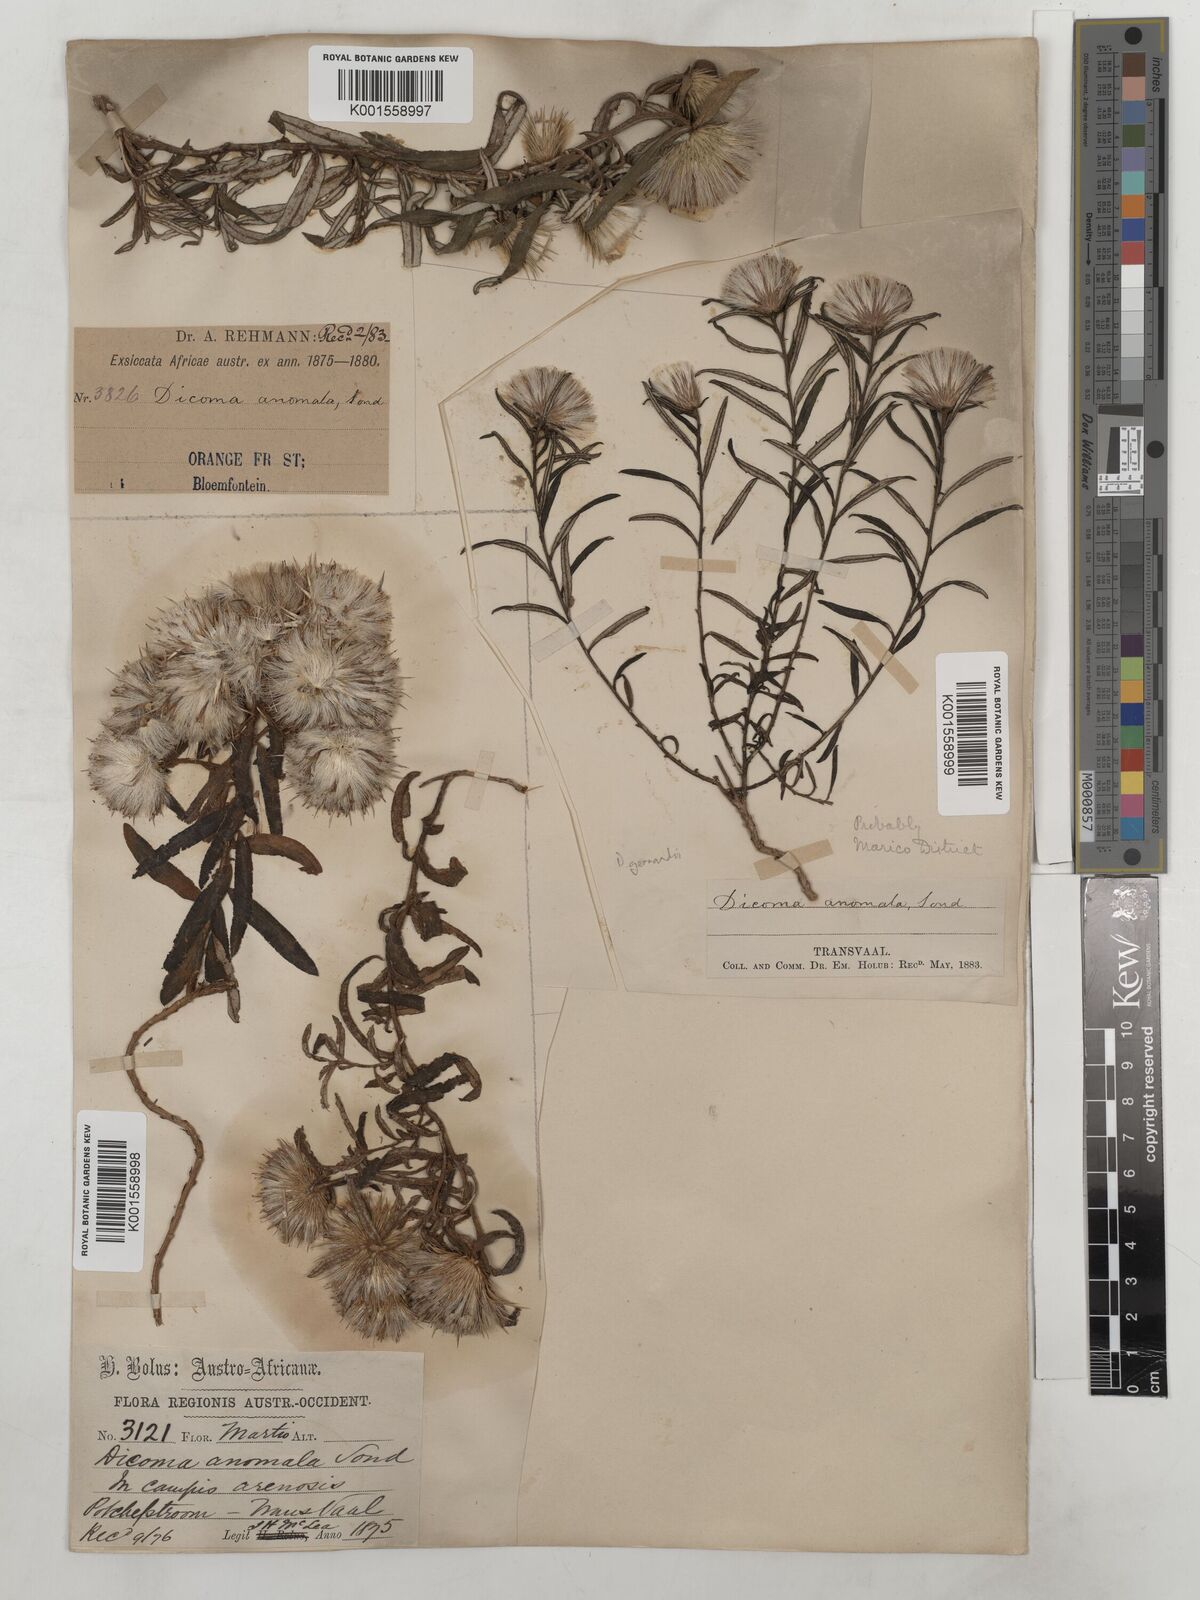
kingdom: Plantae
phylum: Tracheophyta
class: Magnoliopsida
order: Asterales
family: Asteraceae
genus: Dicoma
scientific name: Dicoma anomala
